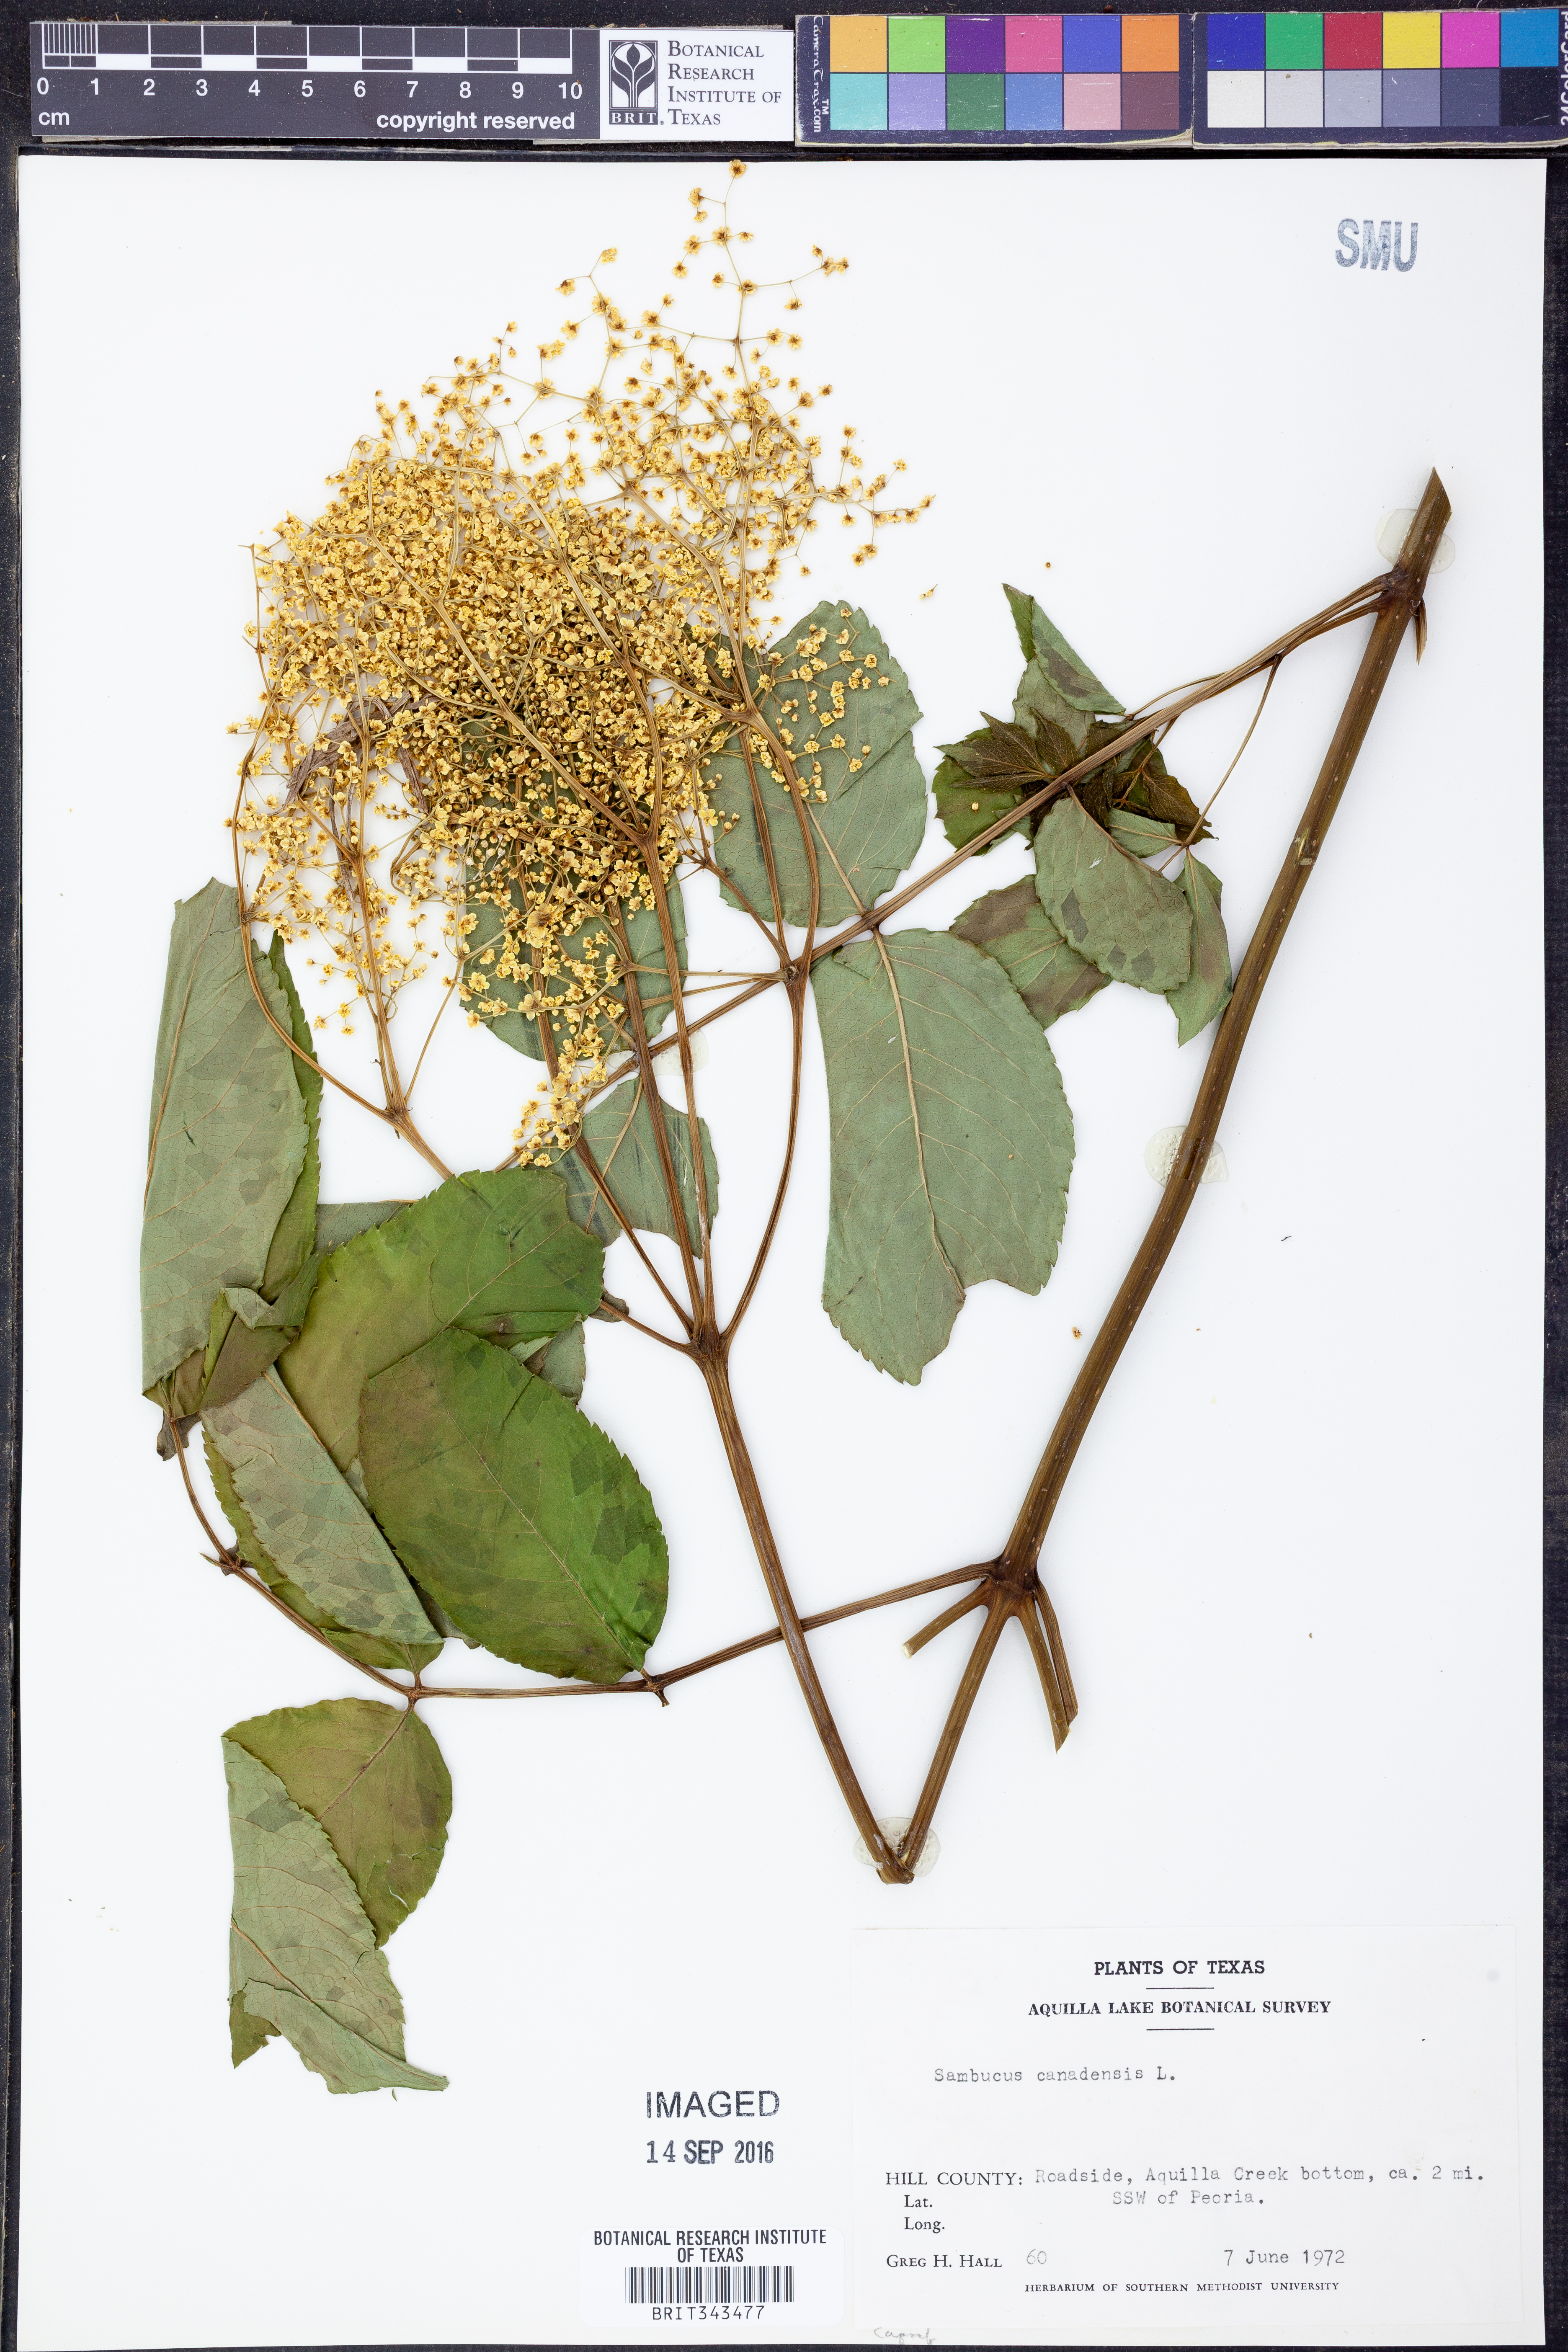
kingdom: Plantae
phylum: Tracheophyta
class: Magnoliopsida
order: Dipsacales
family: Viburnaceae
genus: Sambucus
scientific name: Sambucus canadensis
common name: American elder
